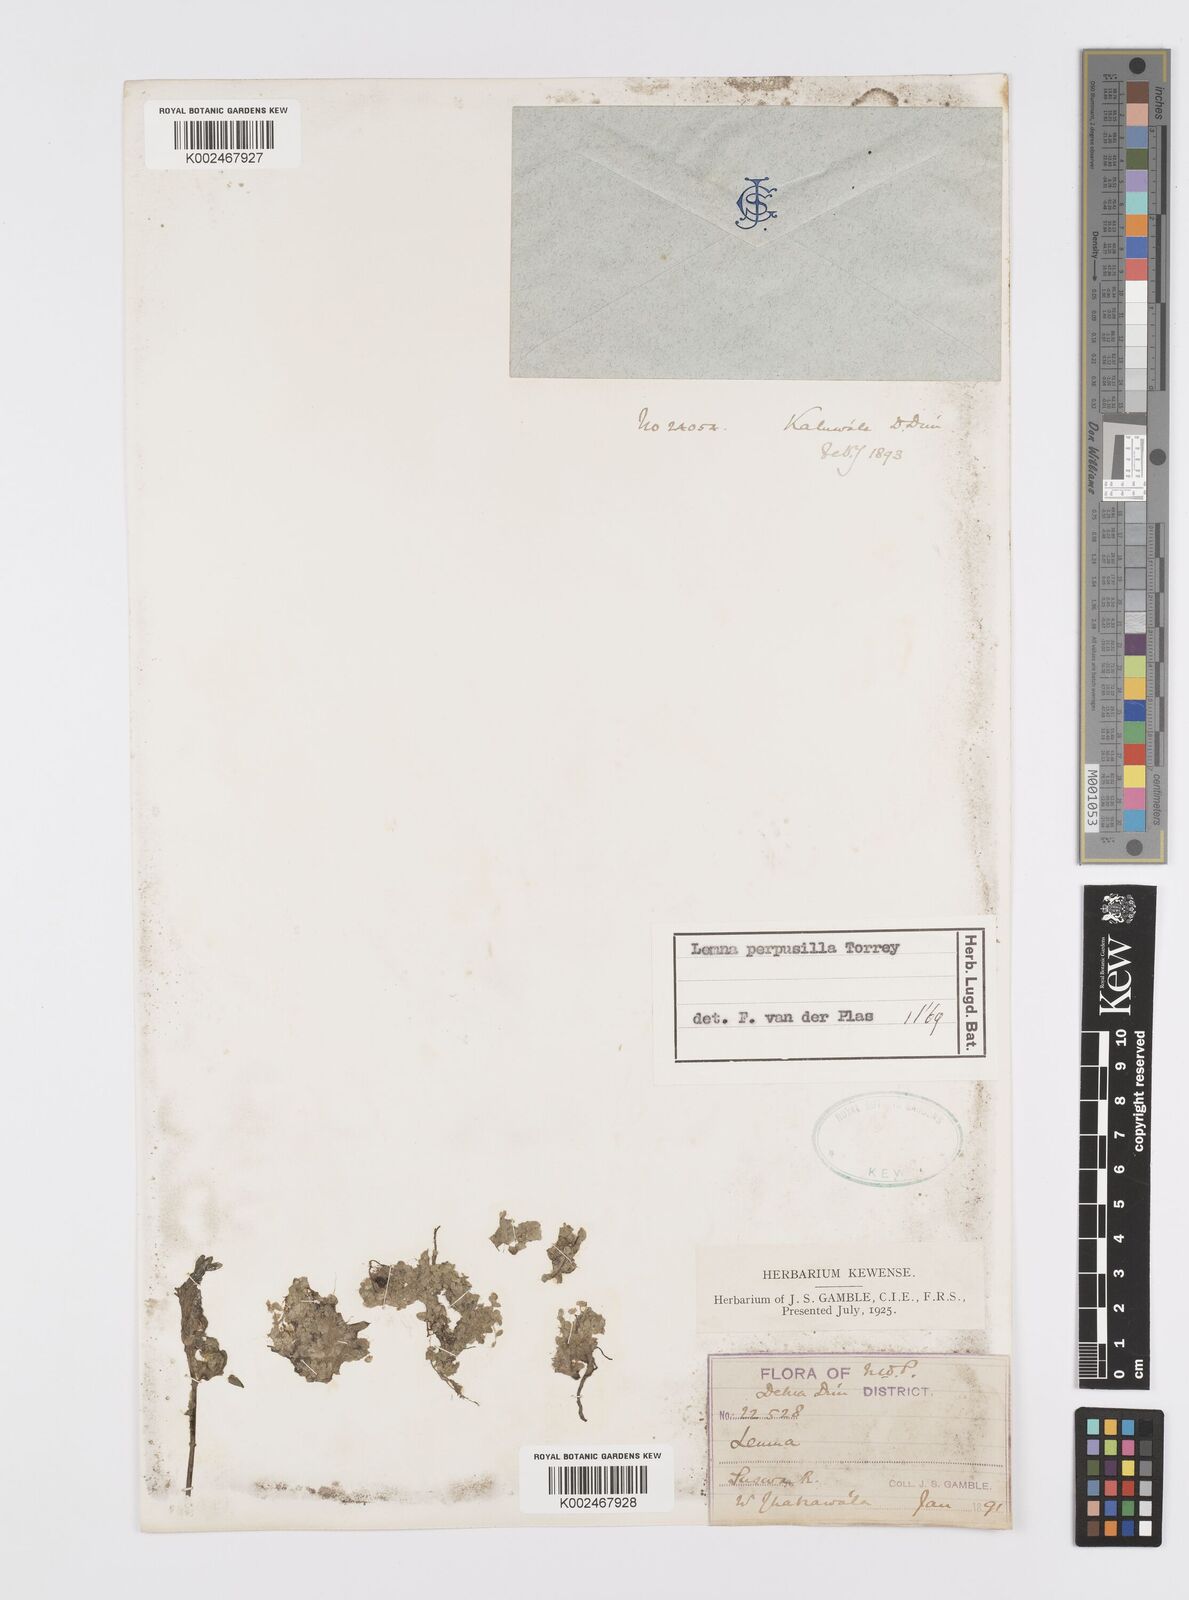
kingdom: Plantae
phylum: Tracheophyta
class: Liliopsida
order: Alismatales
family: Araceae
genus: Lemna
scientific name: Lemna perpusilla
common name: Duckweed
